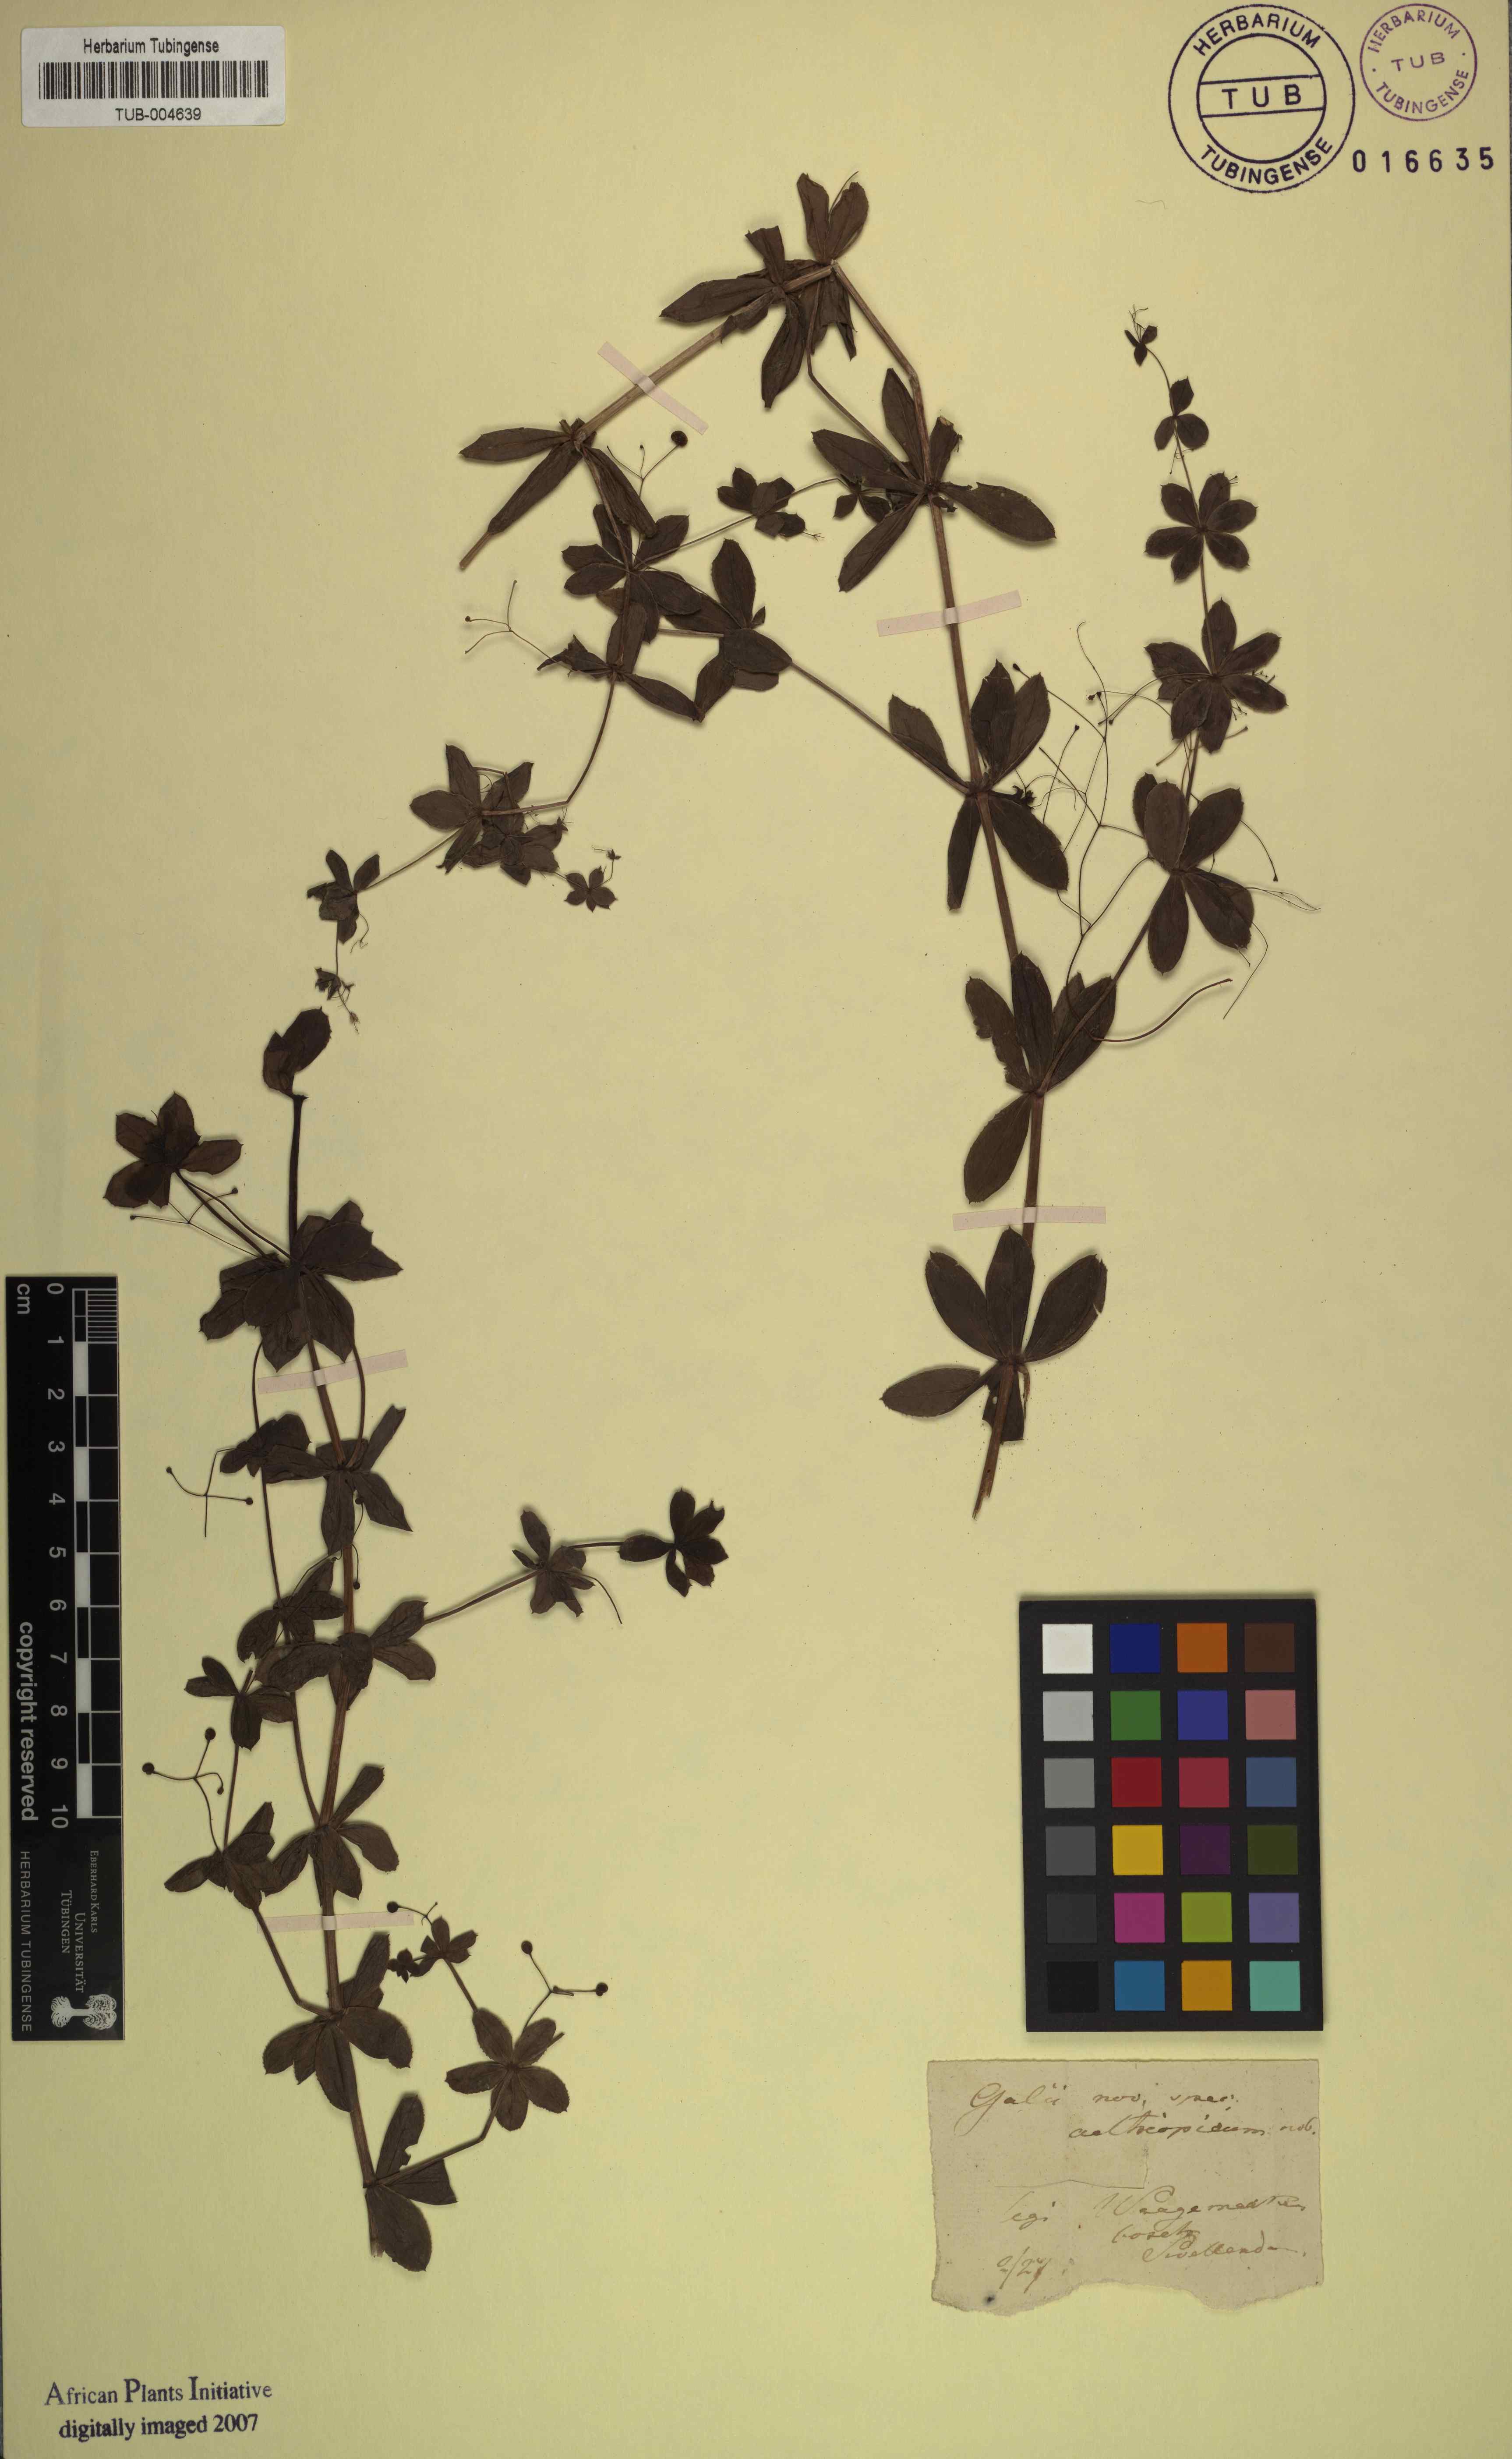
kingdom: Plantae
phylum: Tracheophyta
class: Magnoliopsida
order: Gentianales
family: Rubiaceae
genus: Galium
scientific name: Galium
